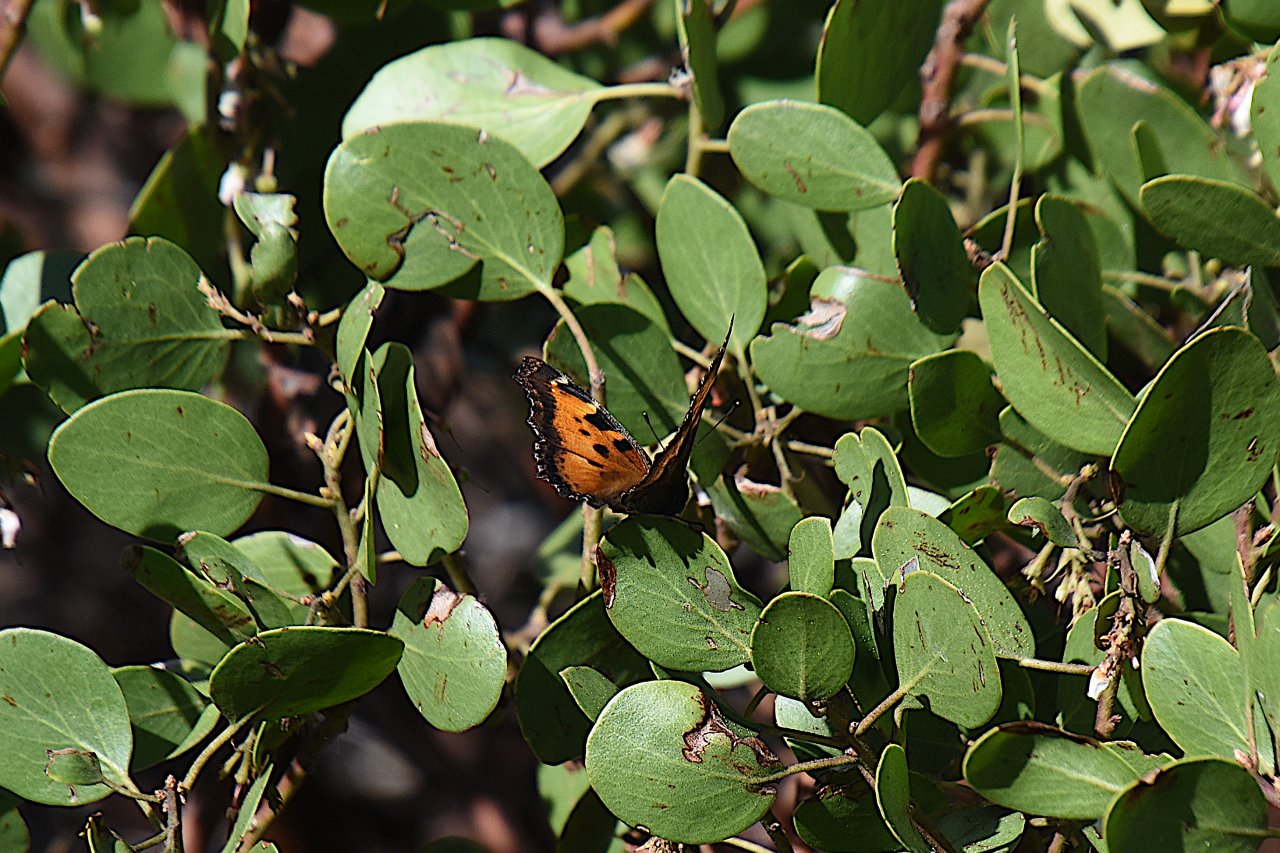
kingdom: Animalia
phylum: Arthropoda
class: Insecta
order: Lepidoptera
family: Nymphalidae
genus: Nymphalis
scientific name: Nymphalis californica
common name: California Tortoiseshell
